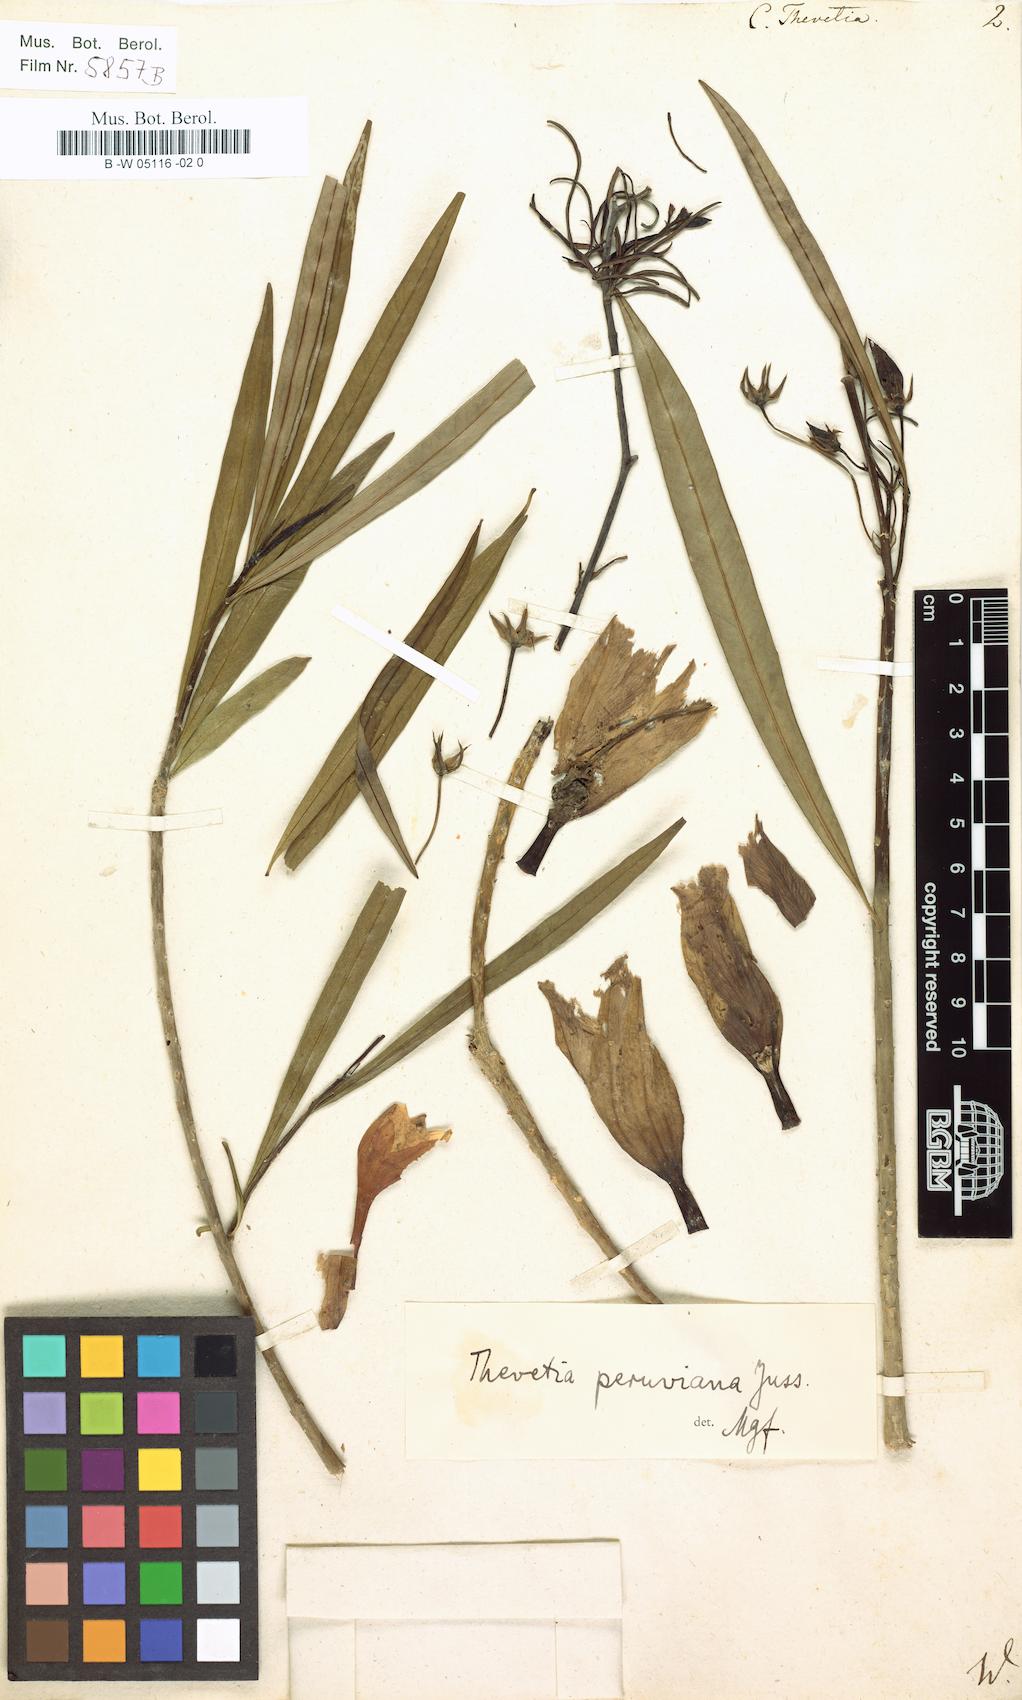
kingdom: Plantae
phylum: Tracheophyta
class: Magnoliopsida
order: Gentianales
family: Apocynaceae
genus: Cascabela
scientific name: Cascabela thevetia
